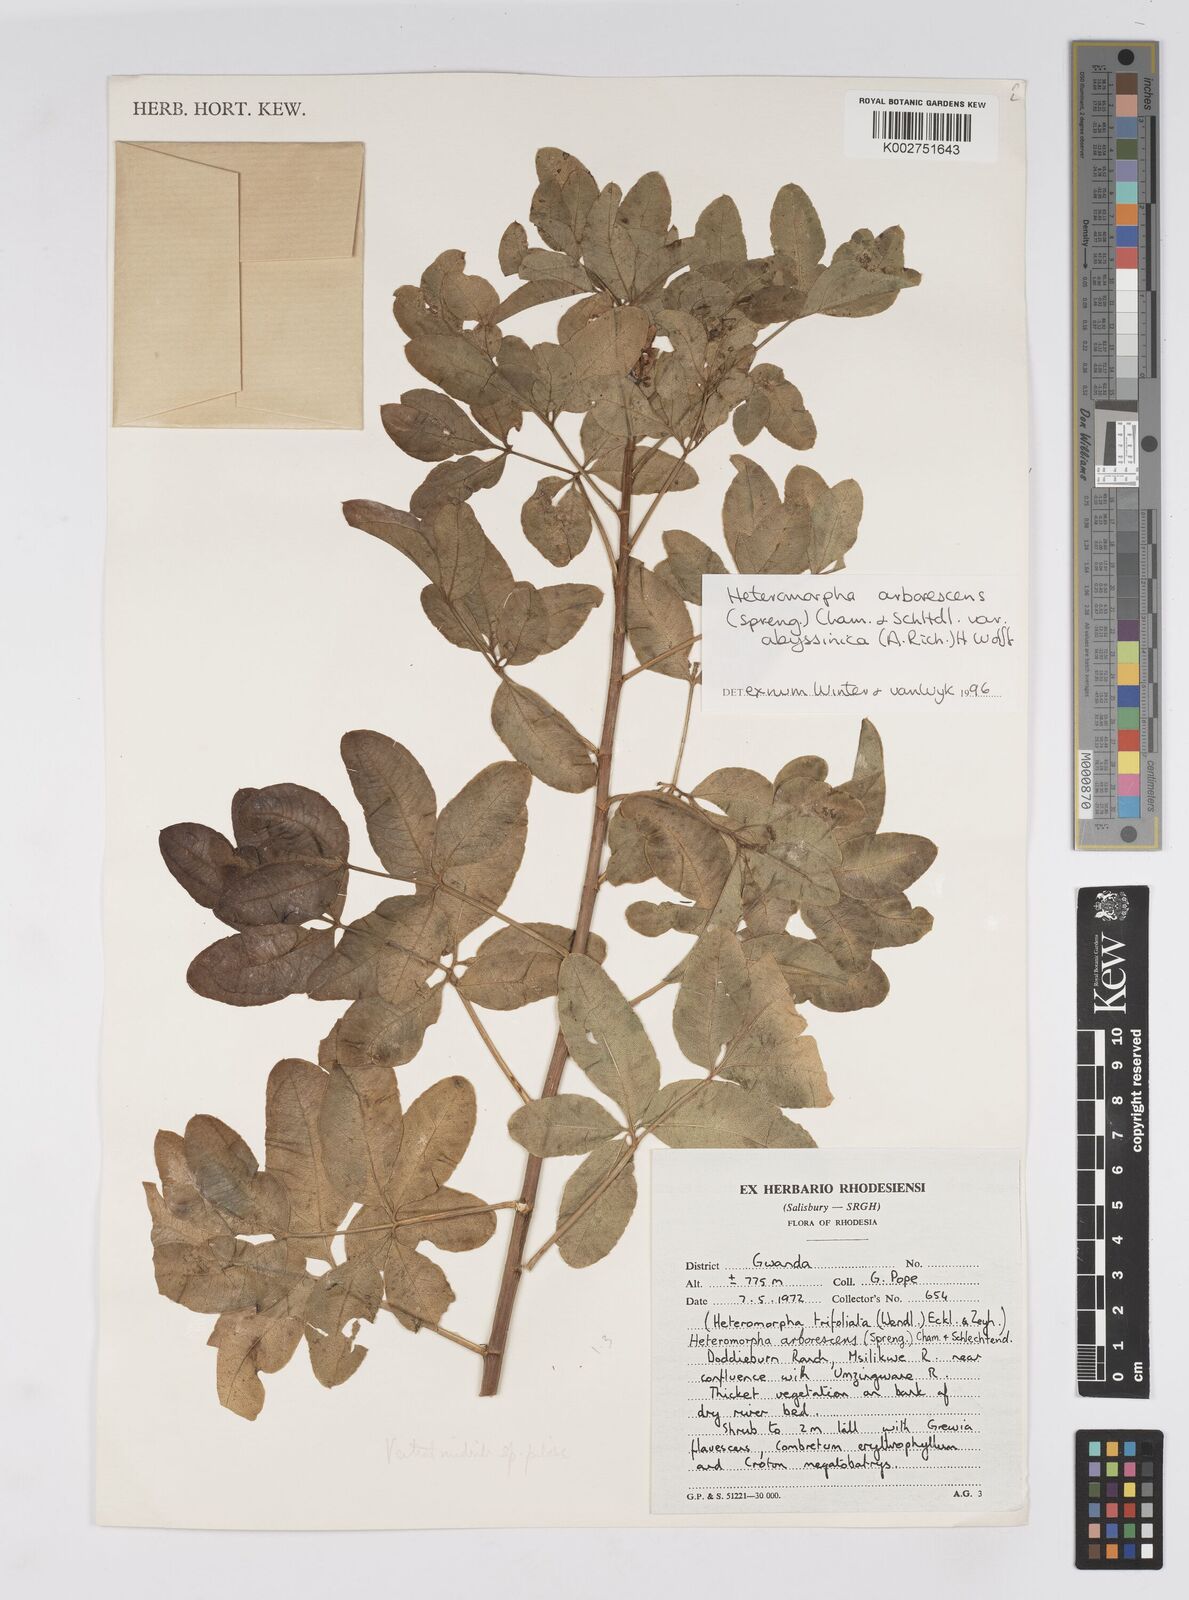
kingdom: Plantae
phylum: Tracheophyta
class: Magnoliopsida
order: Apiales
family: Apiaceae
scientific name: Apiaceae
